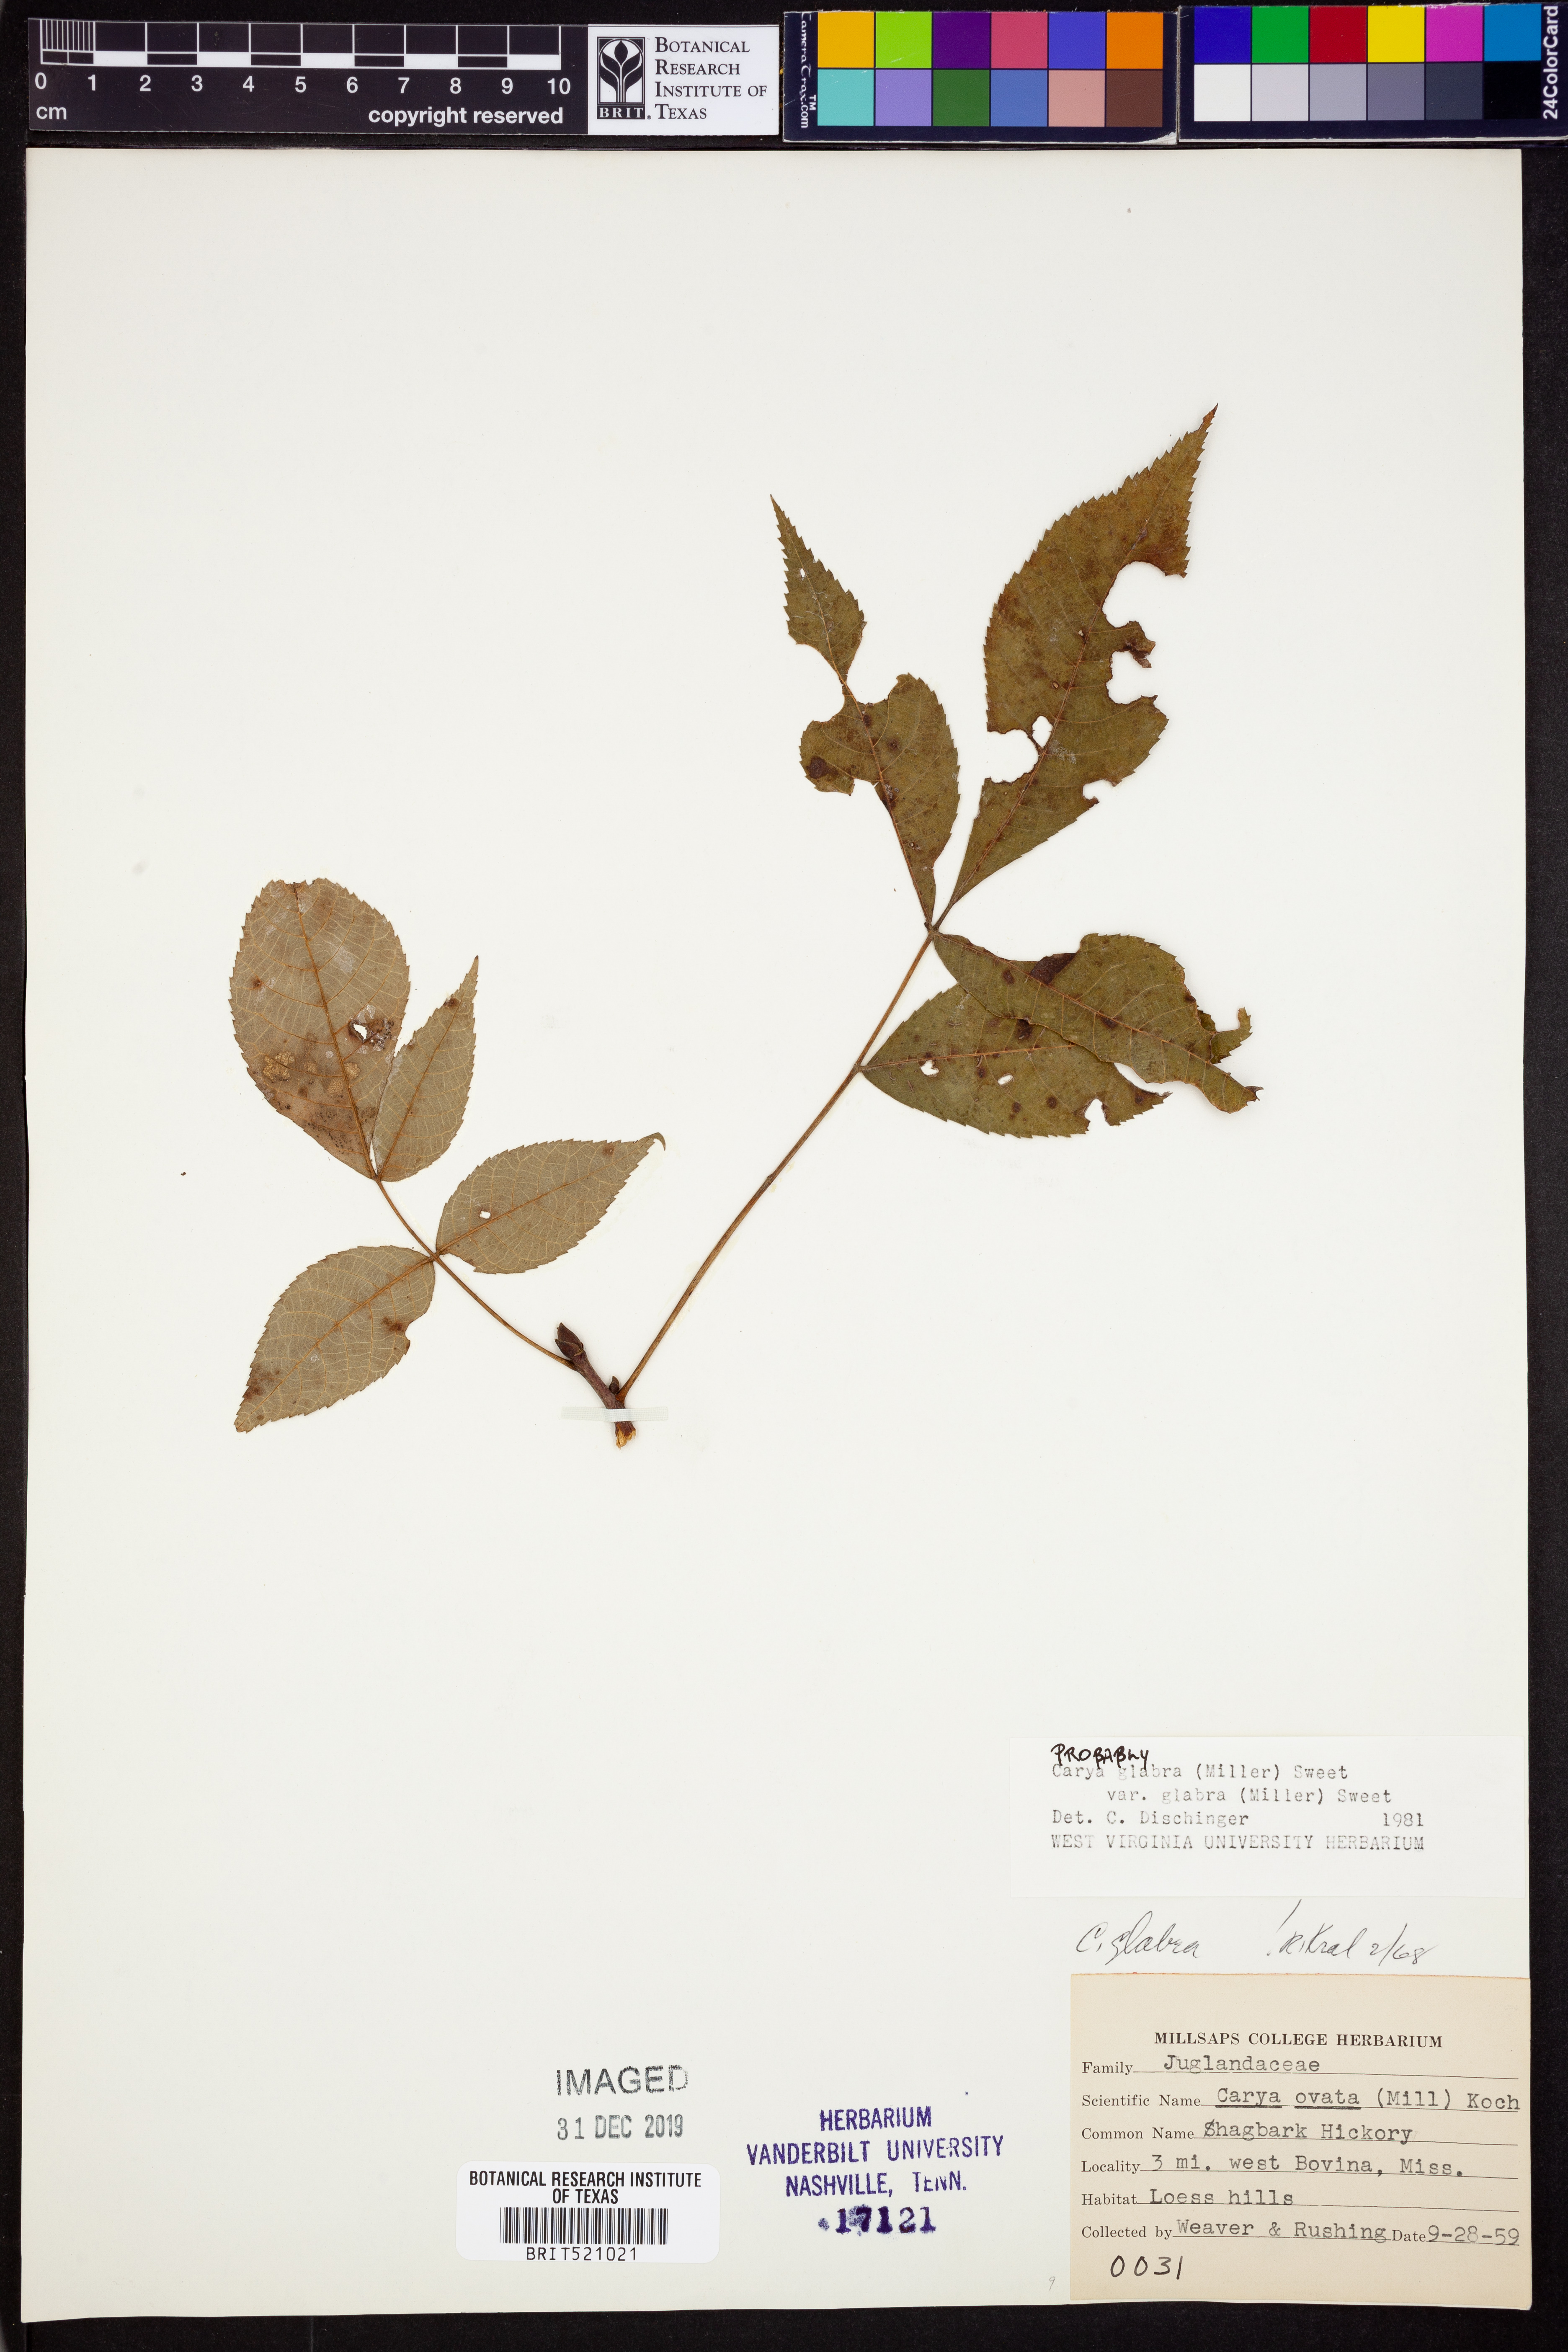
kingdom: Plantae
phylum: Tracheophyta
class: Magnoliopsida
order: Fagales
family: Juglandaceae
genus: Carya
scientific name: Carya glabra
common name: Pignut hickory
